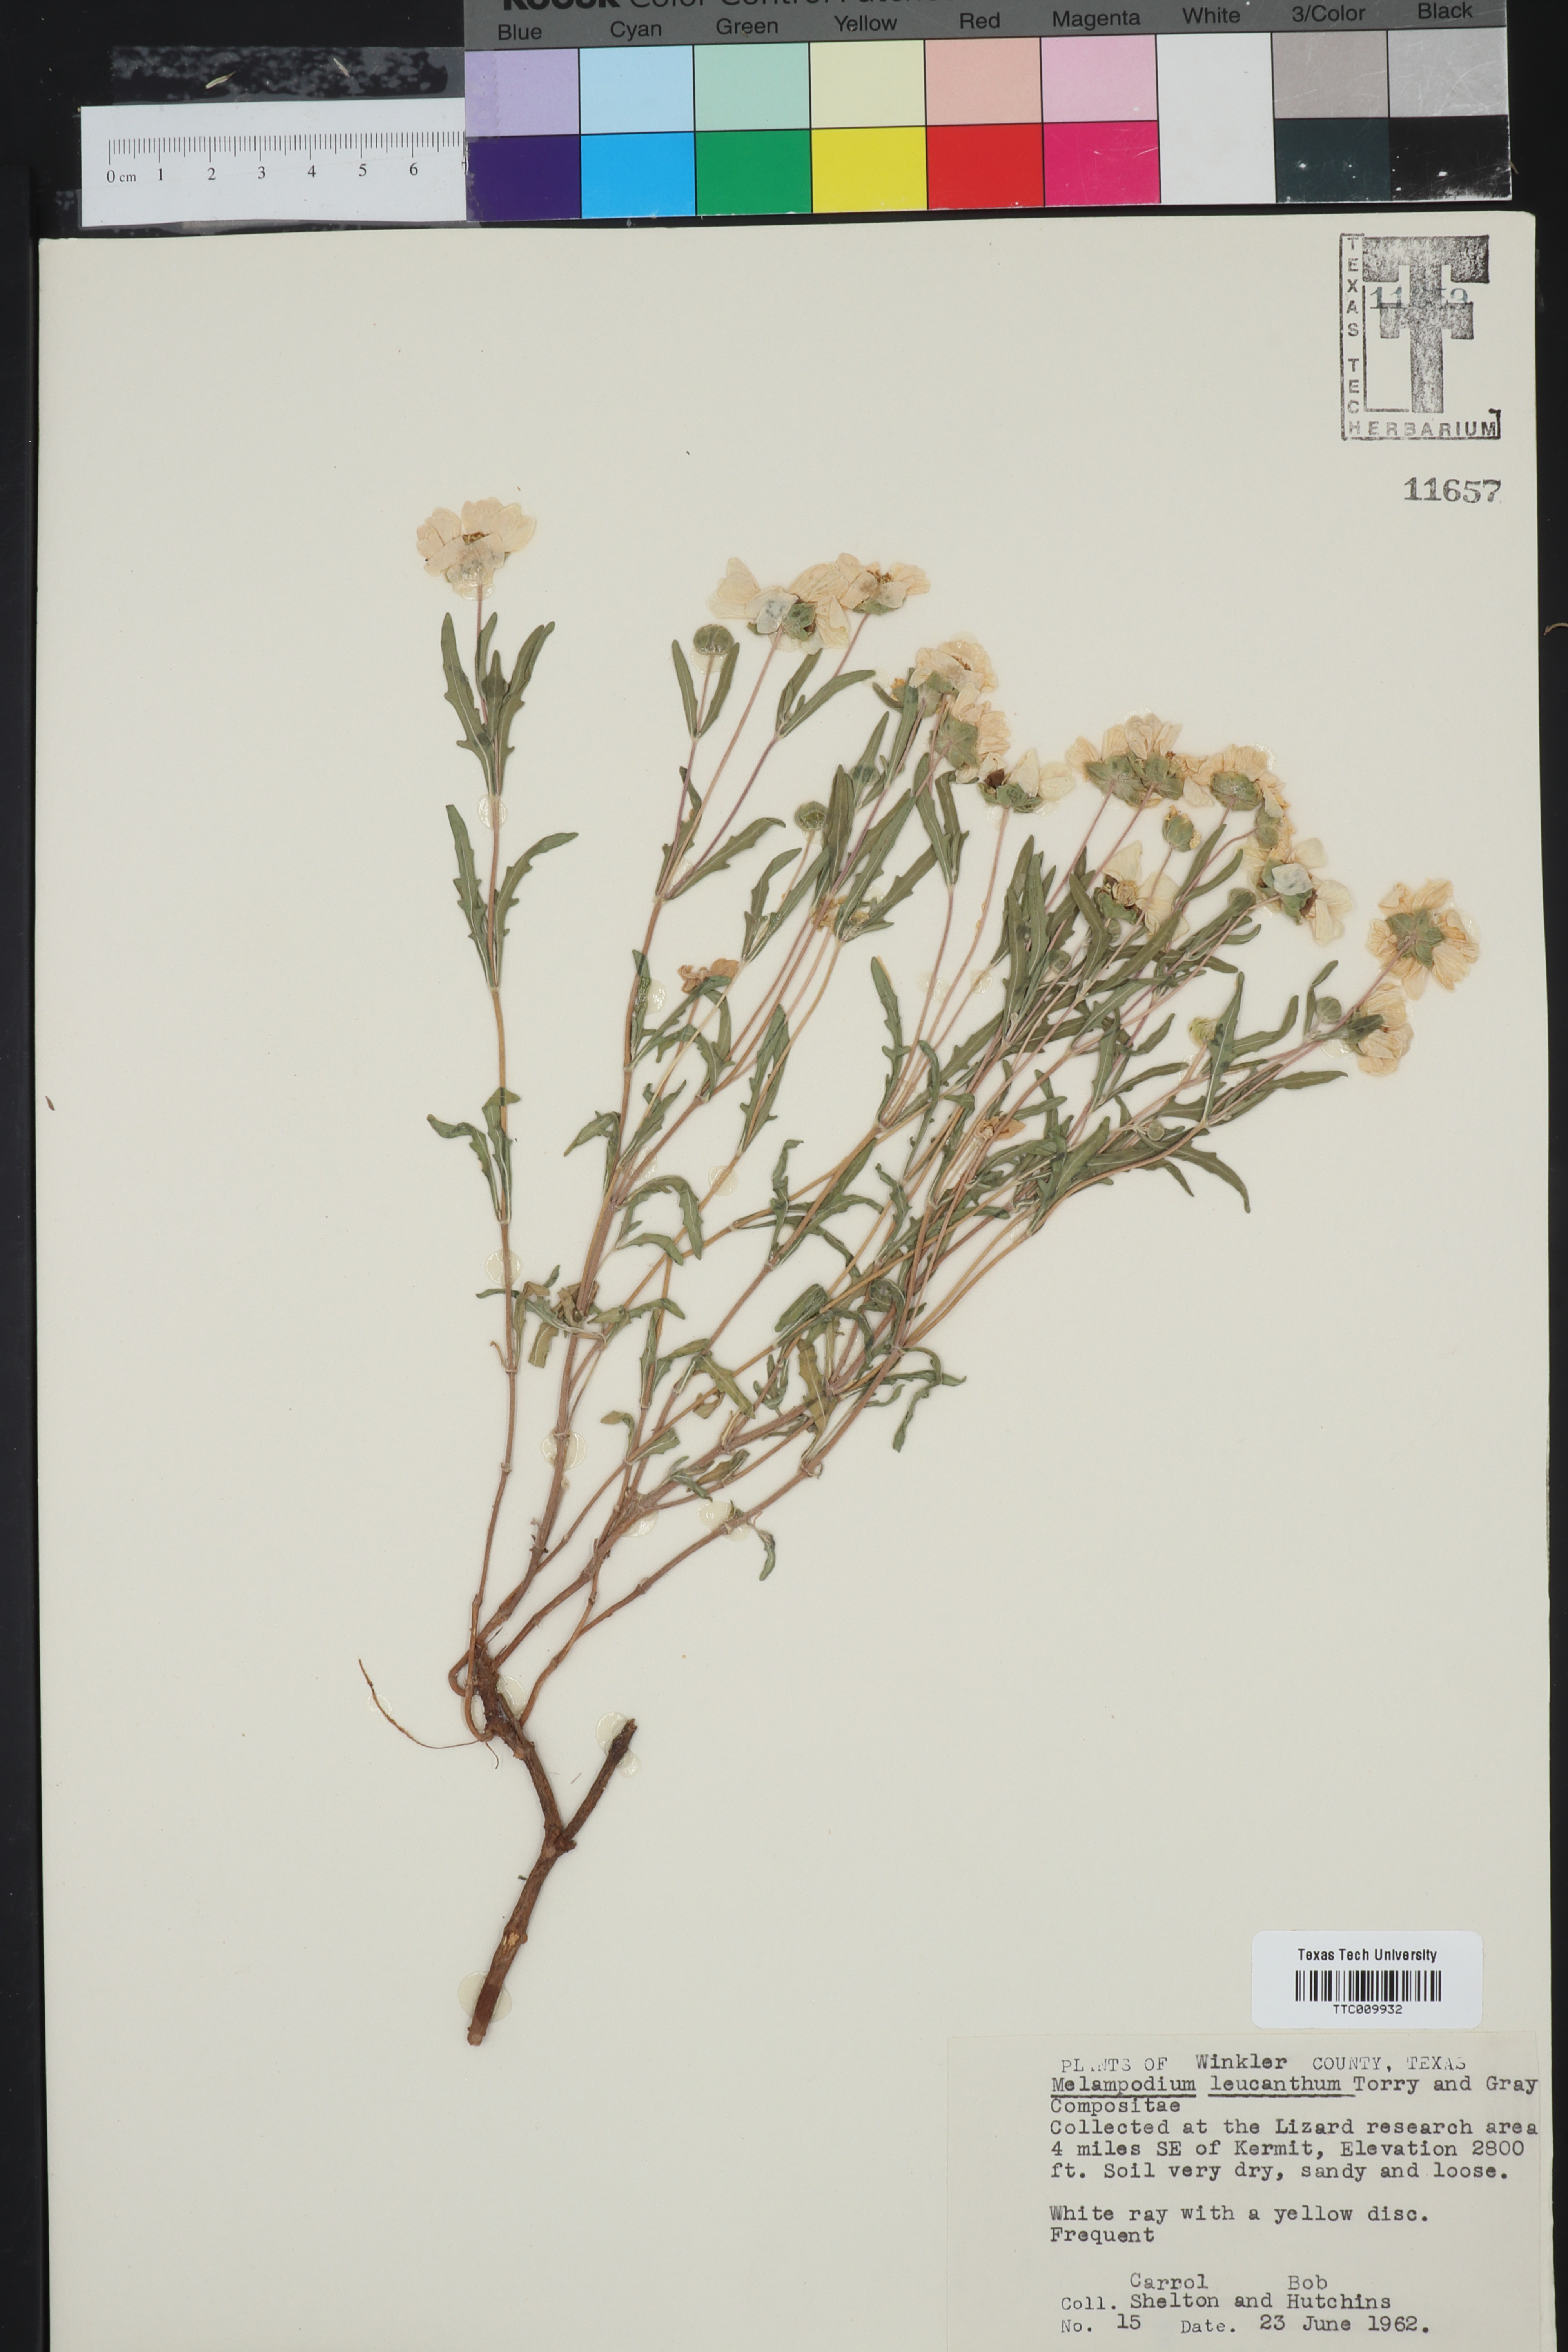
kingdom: Plantae
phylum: Tracheophyta
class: Magnoliopsida
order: Asterales
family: Asteraceae
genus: Melampodium
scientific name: Melampodium leucanthum
